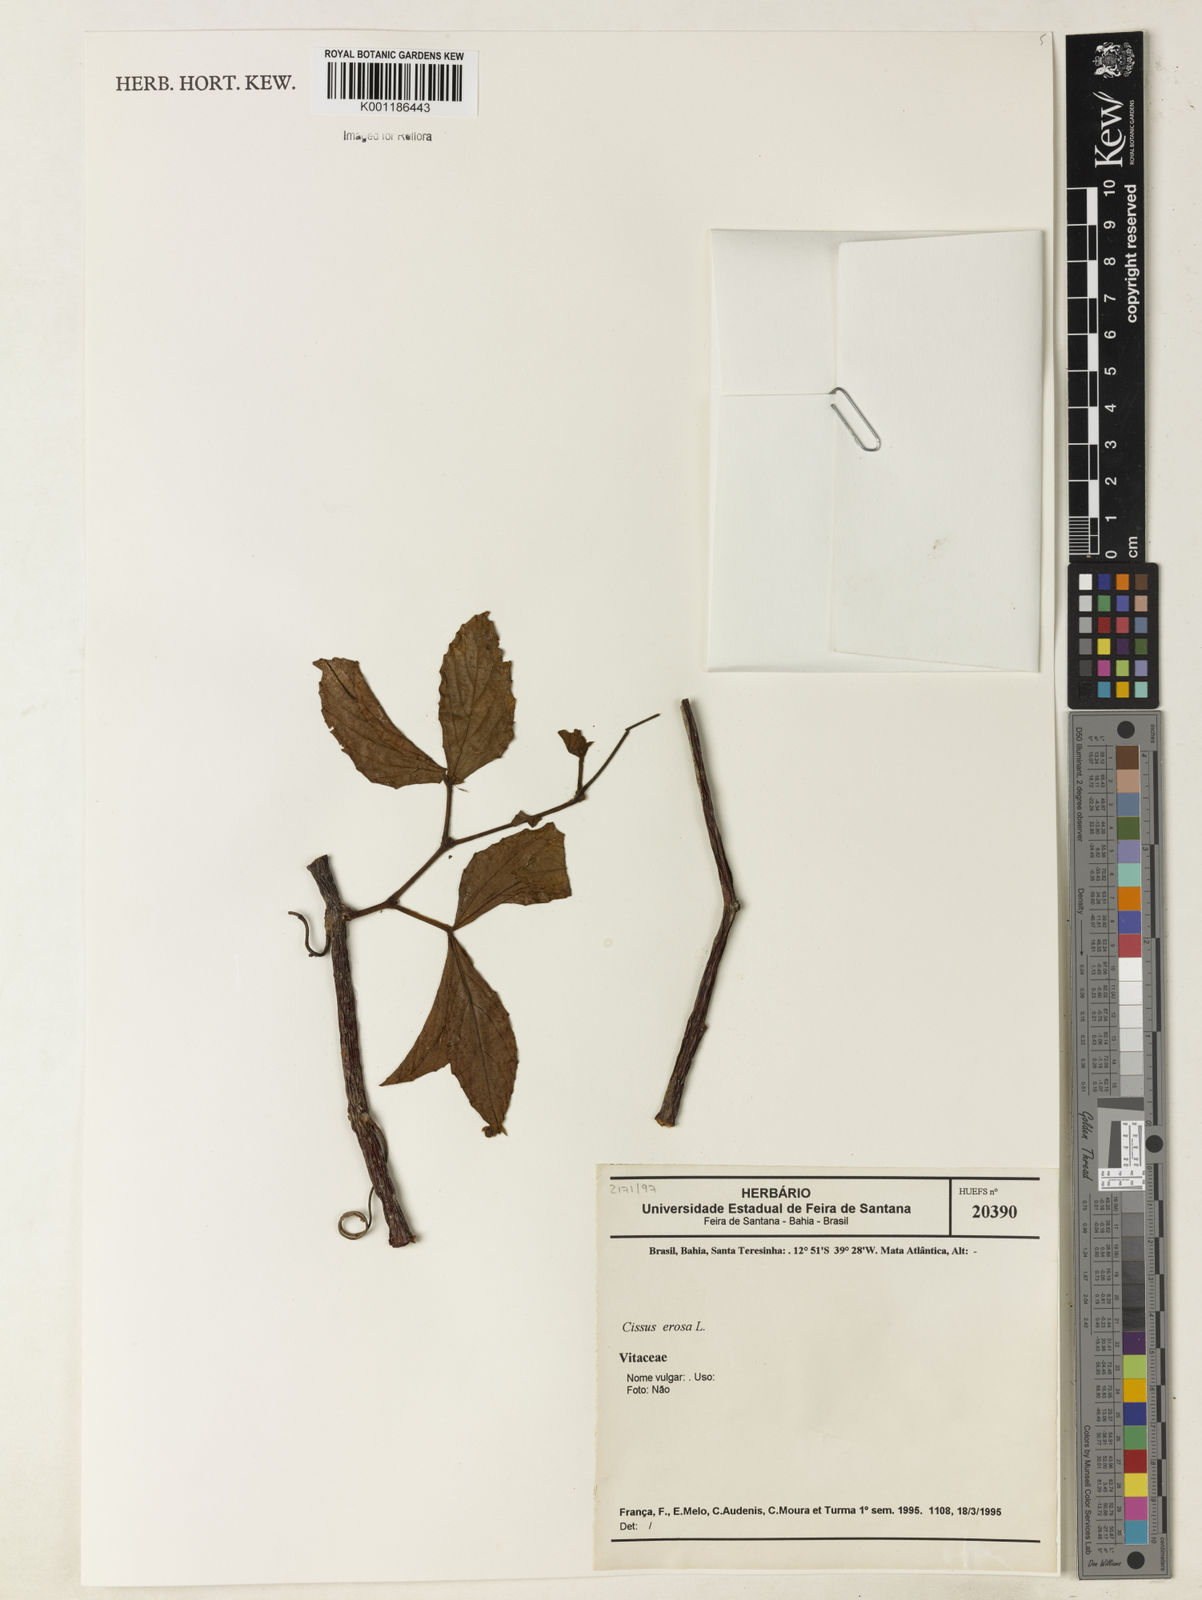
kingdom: Plantae
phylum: Tracheophyta
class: Magnoliopsida
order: Vitales
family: Vitaceae
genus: Cissus
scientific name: Cissus erosa
